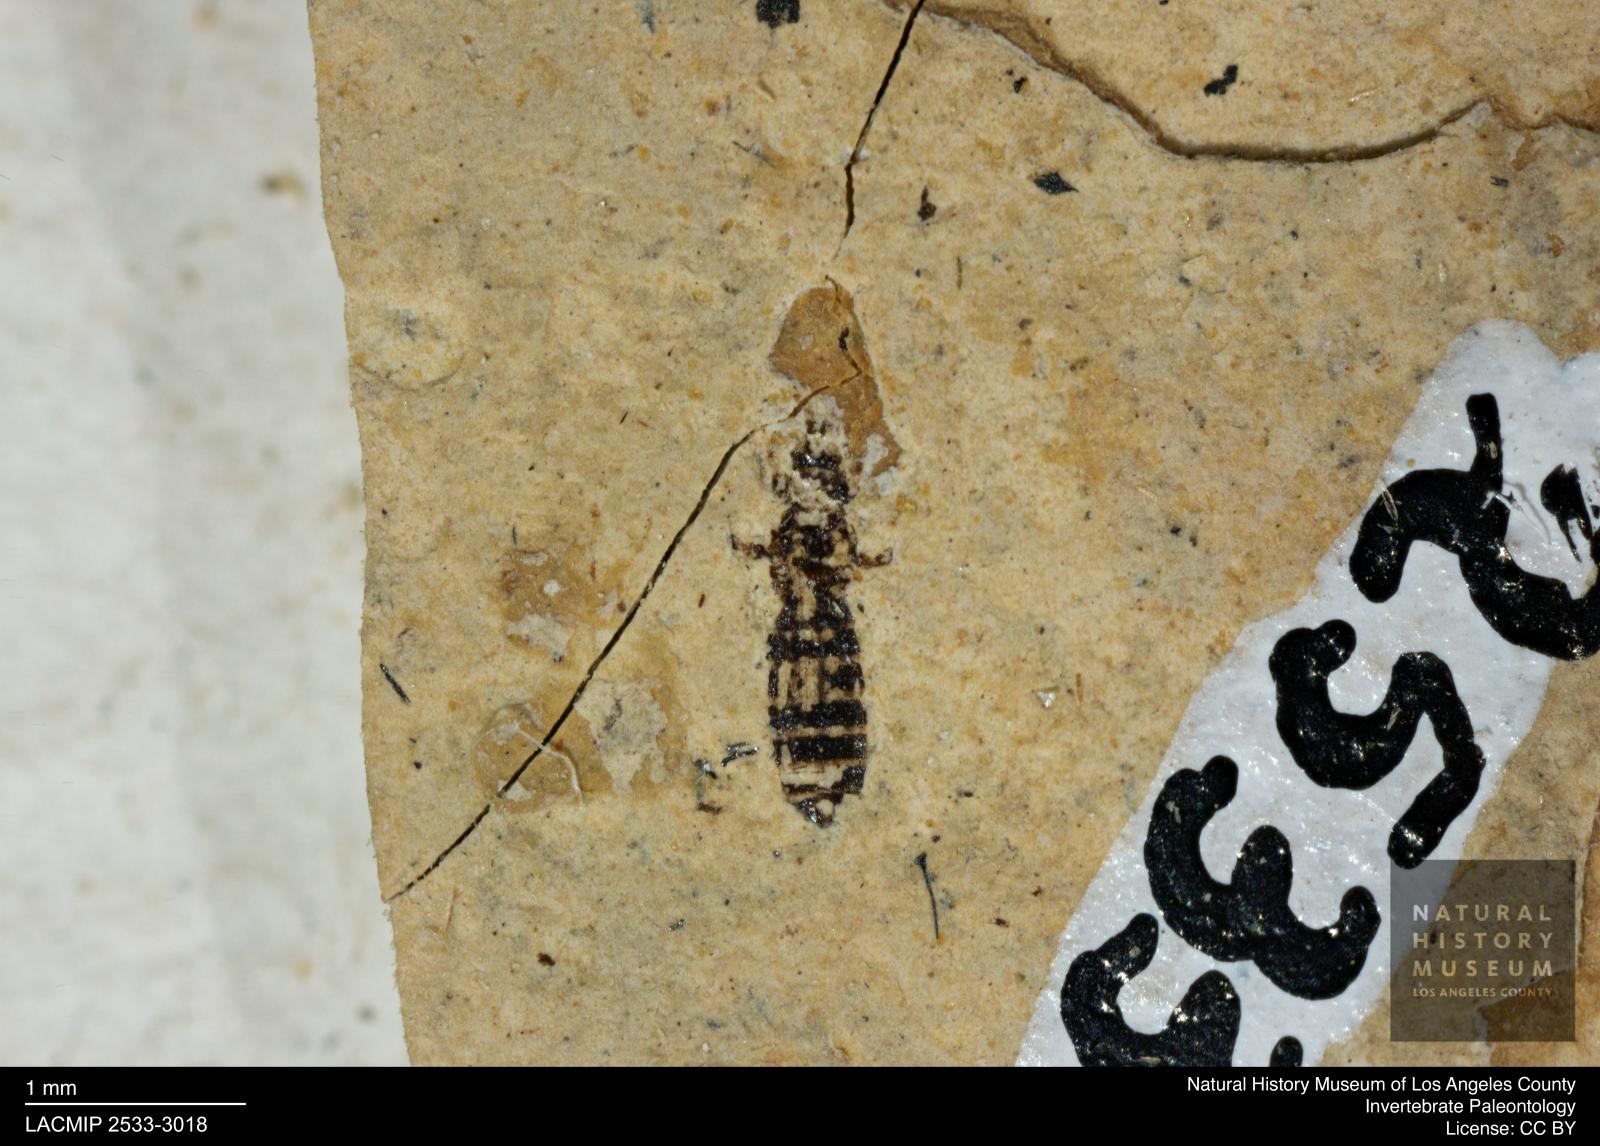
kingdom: Animalia
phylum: Arthropoda
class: Insecta
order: Thysanoptera
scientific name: Thysanoptera
